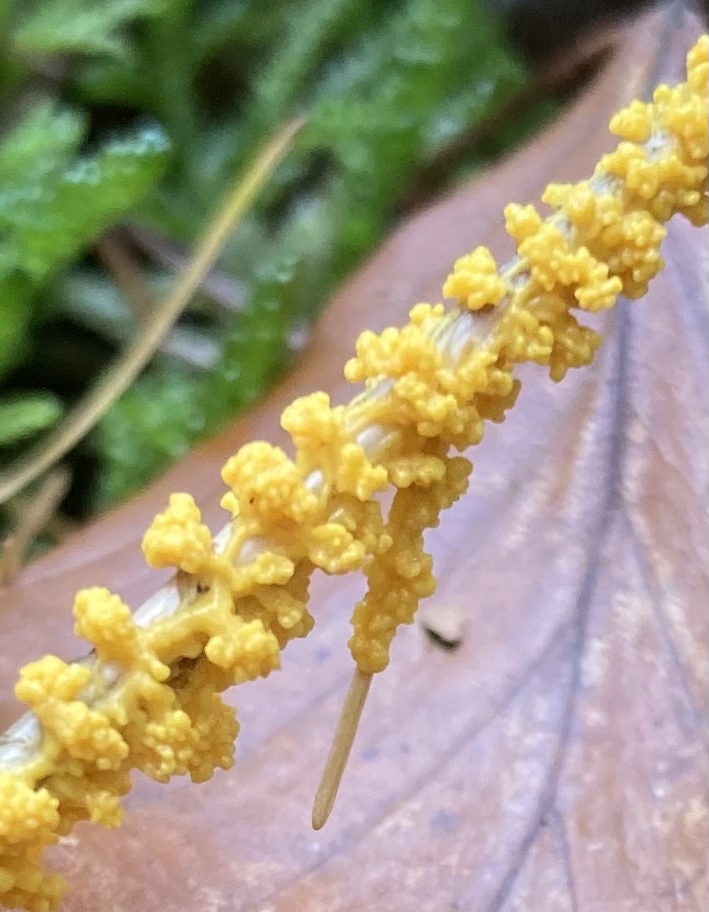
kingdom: Protozoa
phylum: Mycetozoa
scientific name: Mycetozoa
